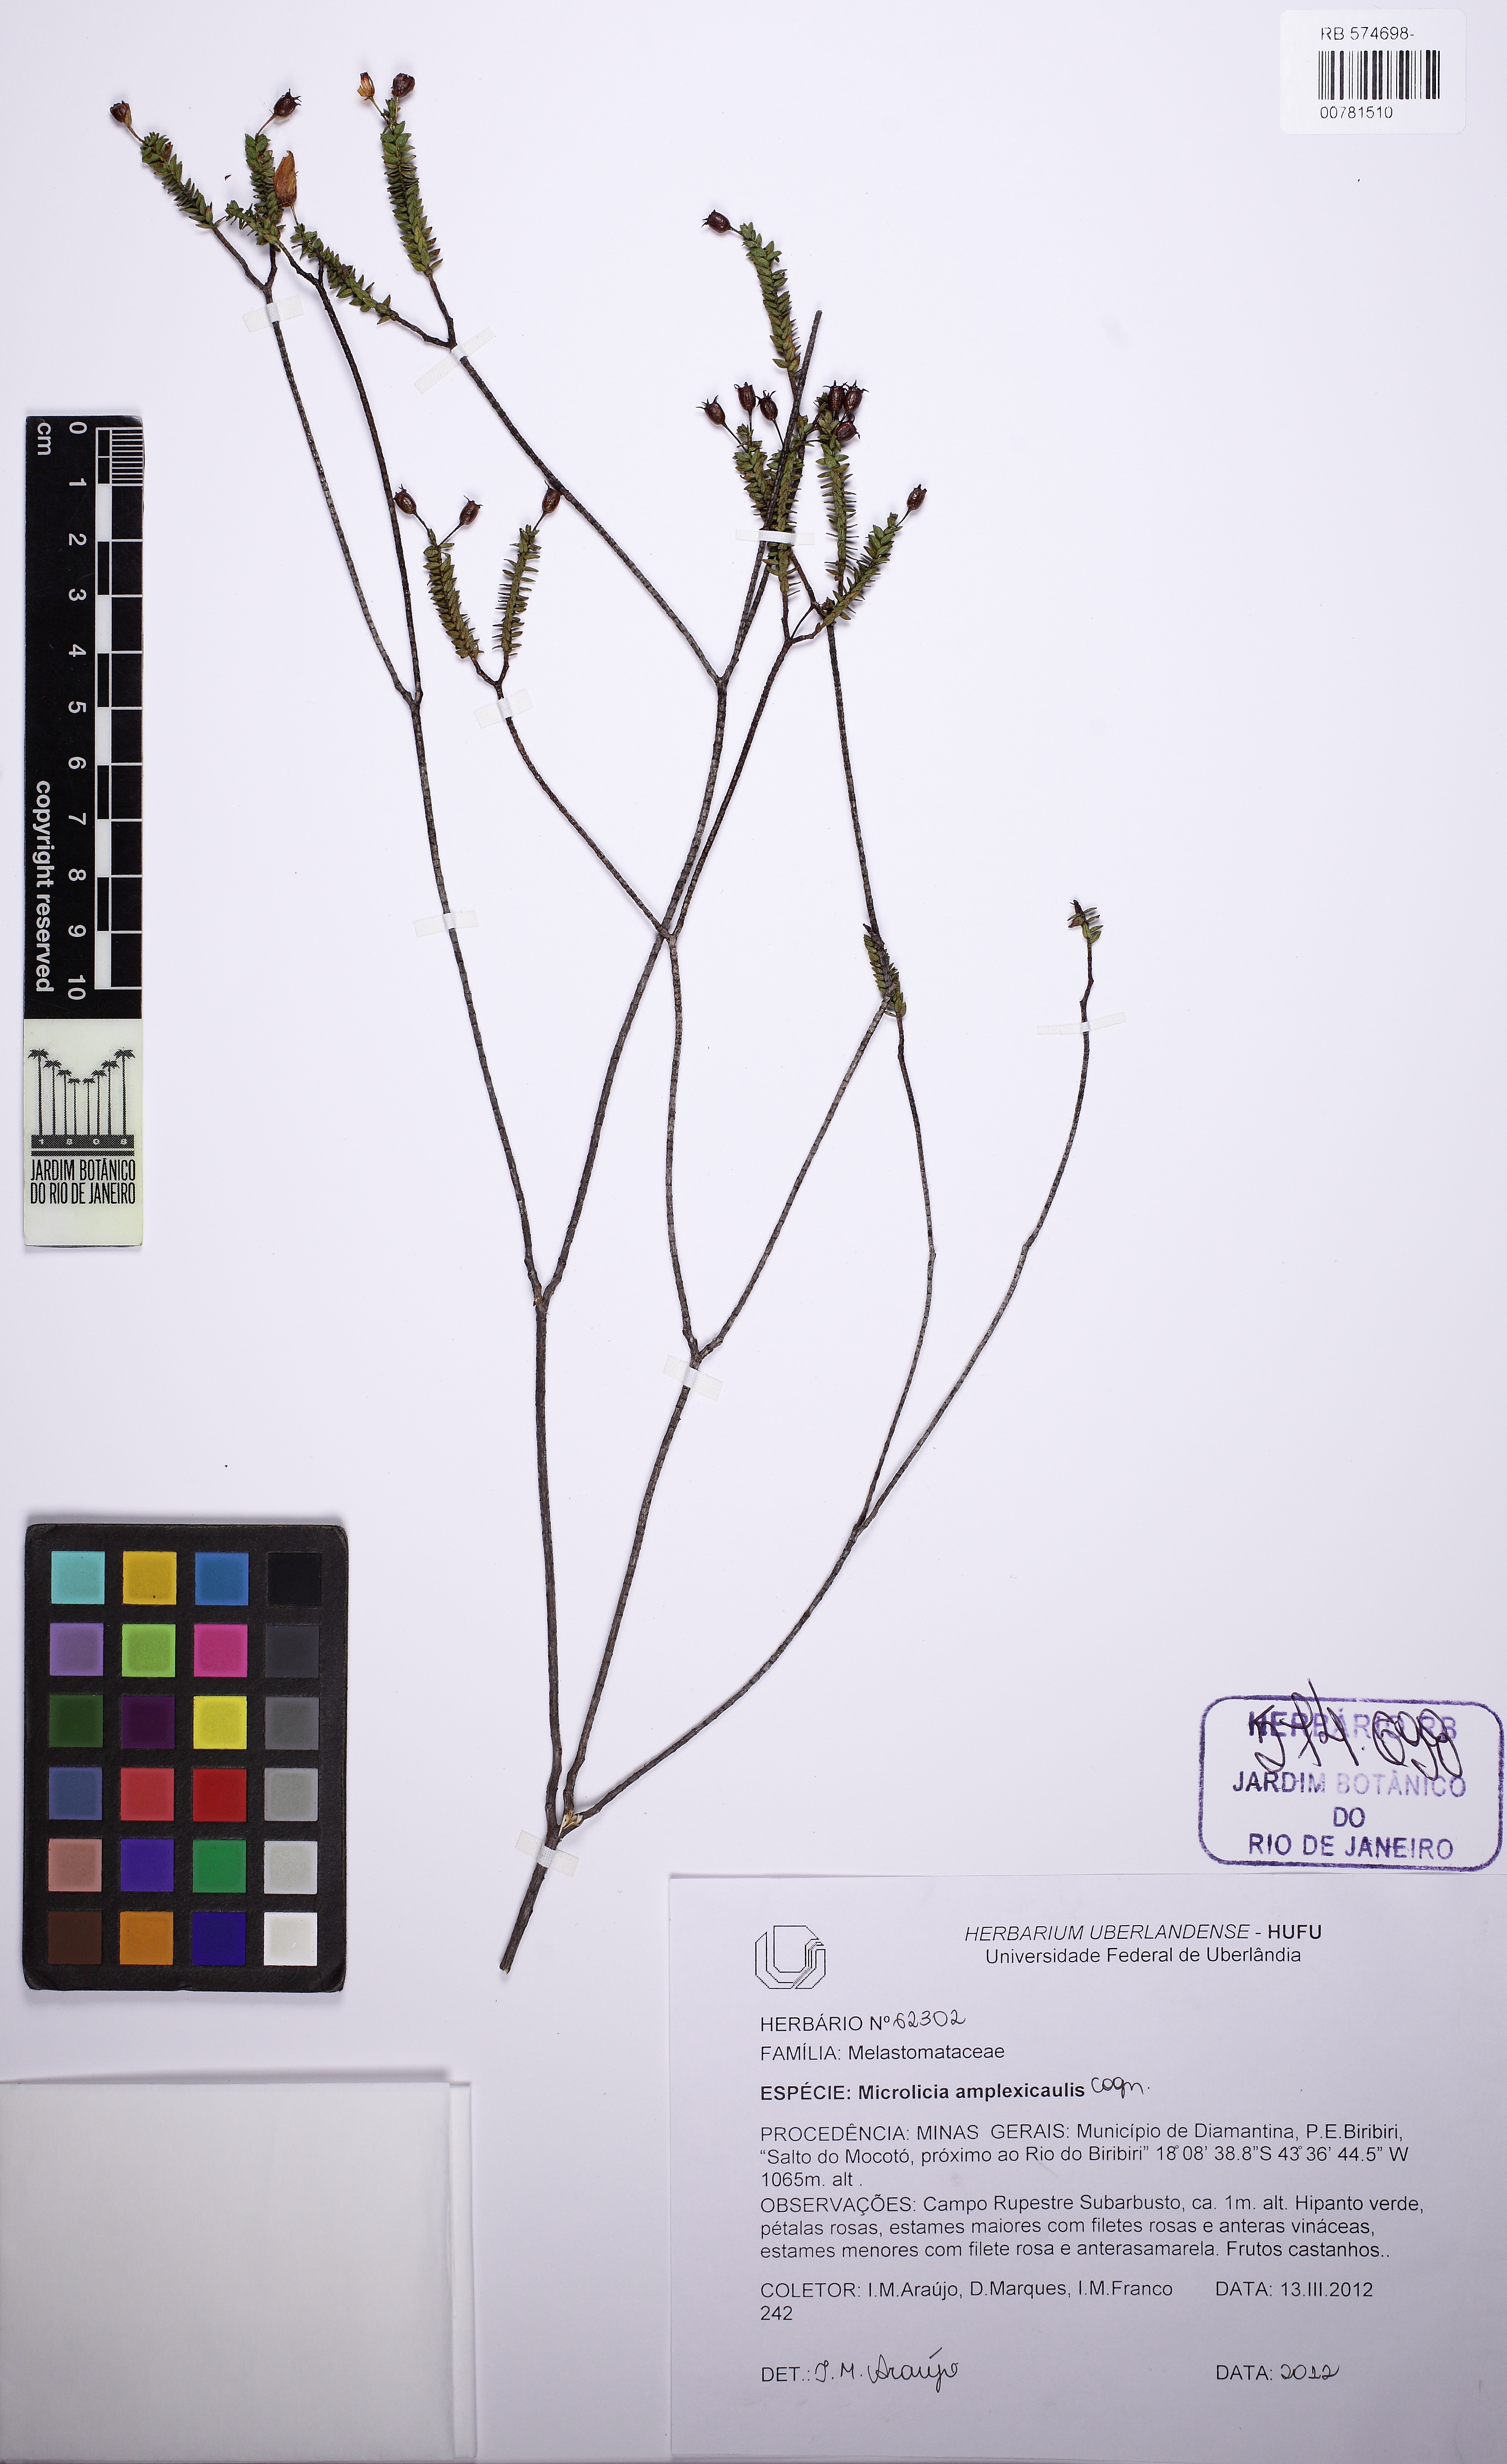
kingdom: Plantae
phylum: Tracheophyta
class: Magnoliopsida
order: Myrtales
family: Melastomataceae
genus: Microlicia
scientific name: Microlicia amplexicaulis
